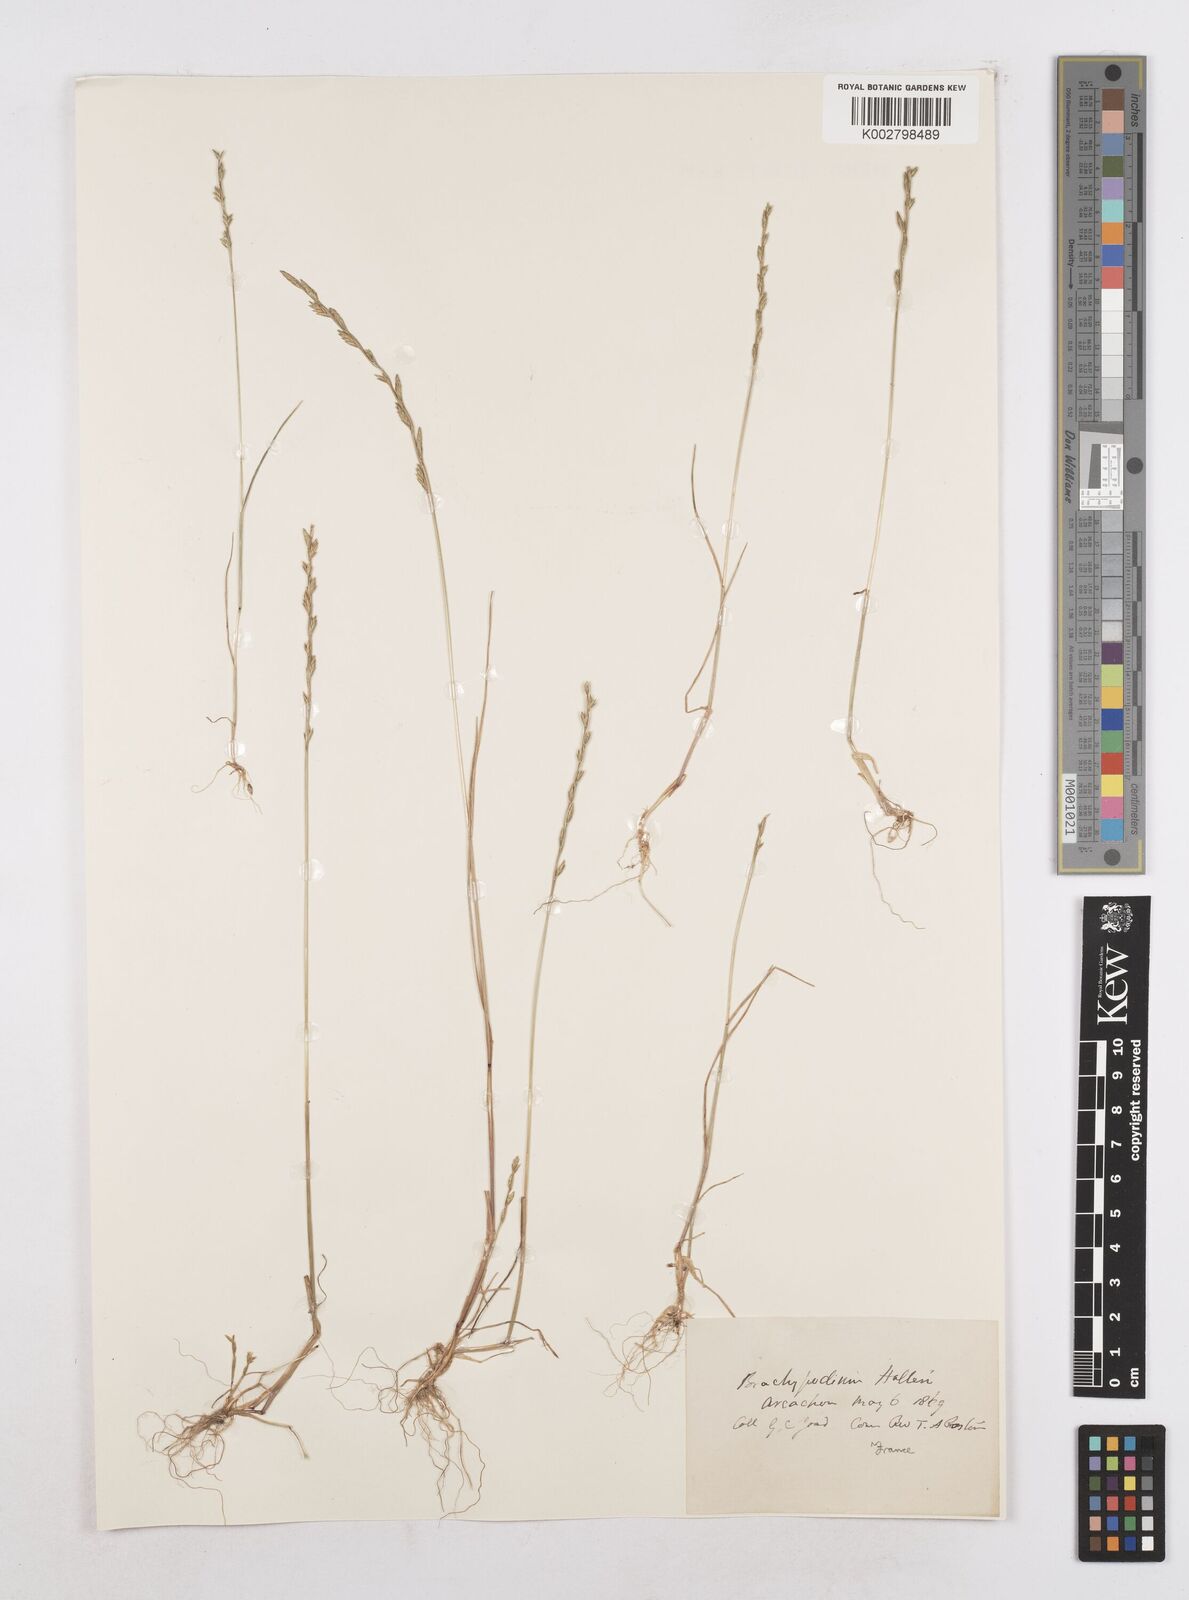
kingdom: Plantae
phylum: Tracheophyta
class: Liliopsida
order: Poales
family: Poaceae
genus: Festuca
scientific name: Festuca lachenalii
